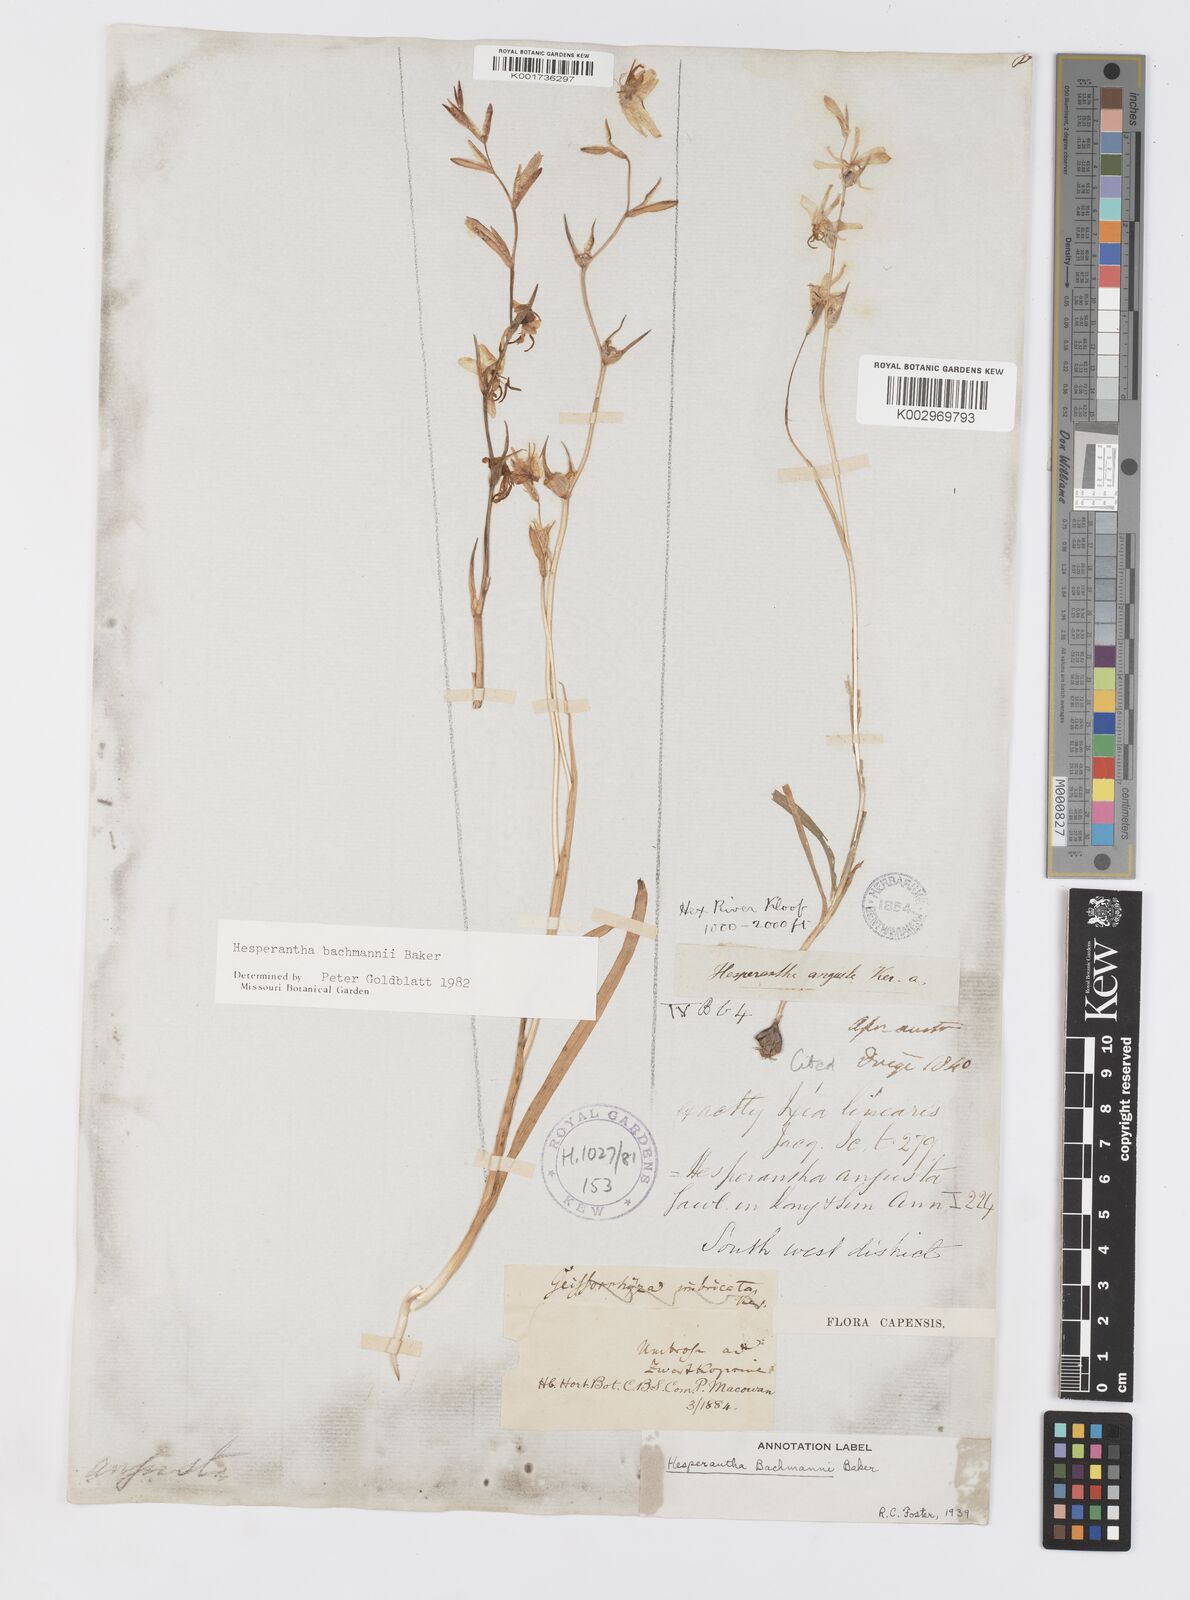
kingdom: Plantae
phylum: Tracheophyta
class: Liliopsida
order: Asparagales
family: Iridaceae
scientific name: Iridaceae
